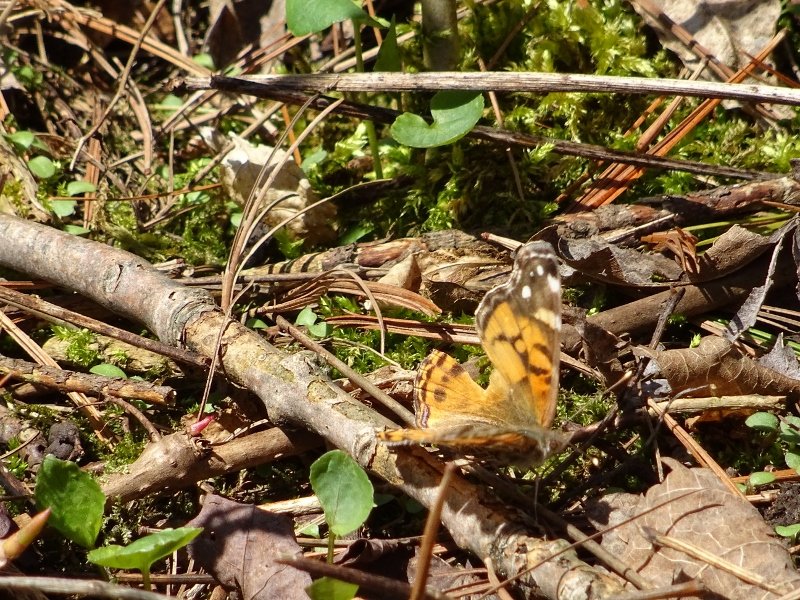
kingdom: Animalia
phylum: Arthropoda
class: Insecta
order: Lepidoptera
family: Nymphalidae
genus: Vanessa
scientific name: Vanessa virginiensis
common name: American Lady
